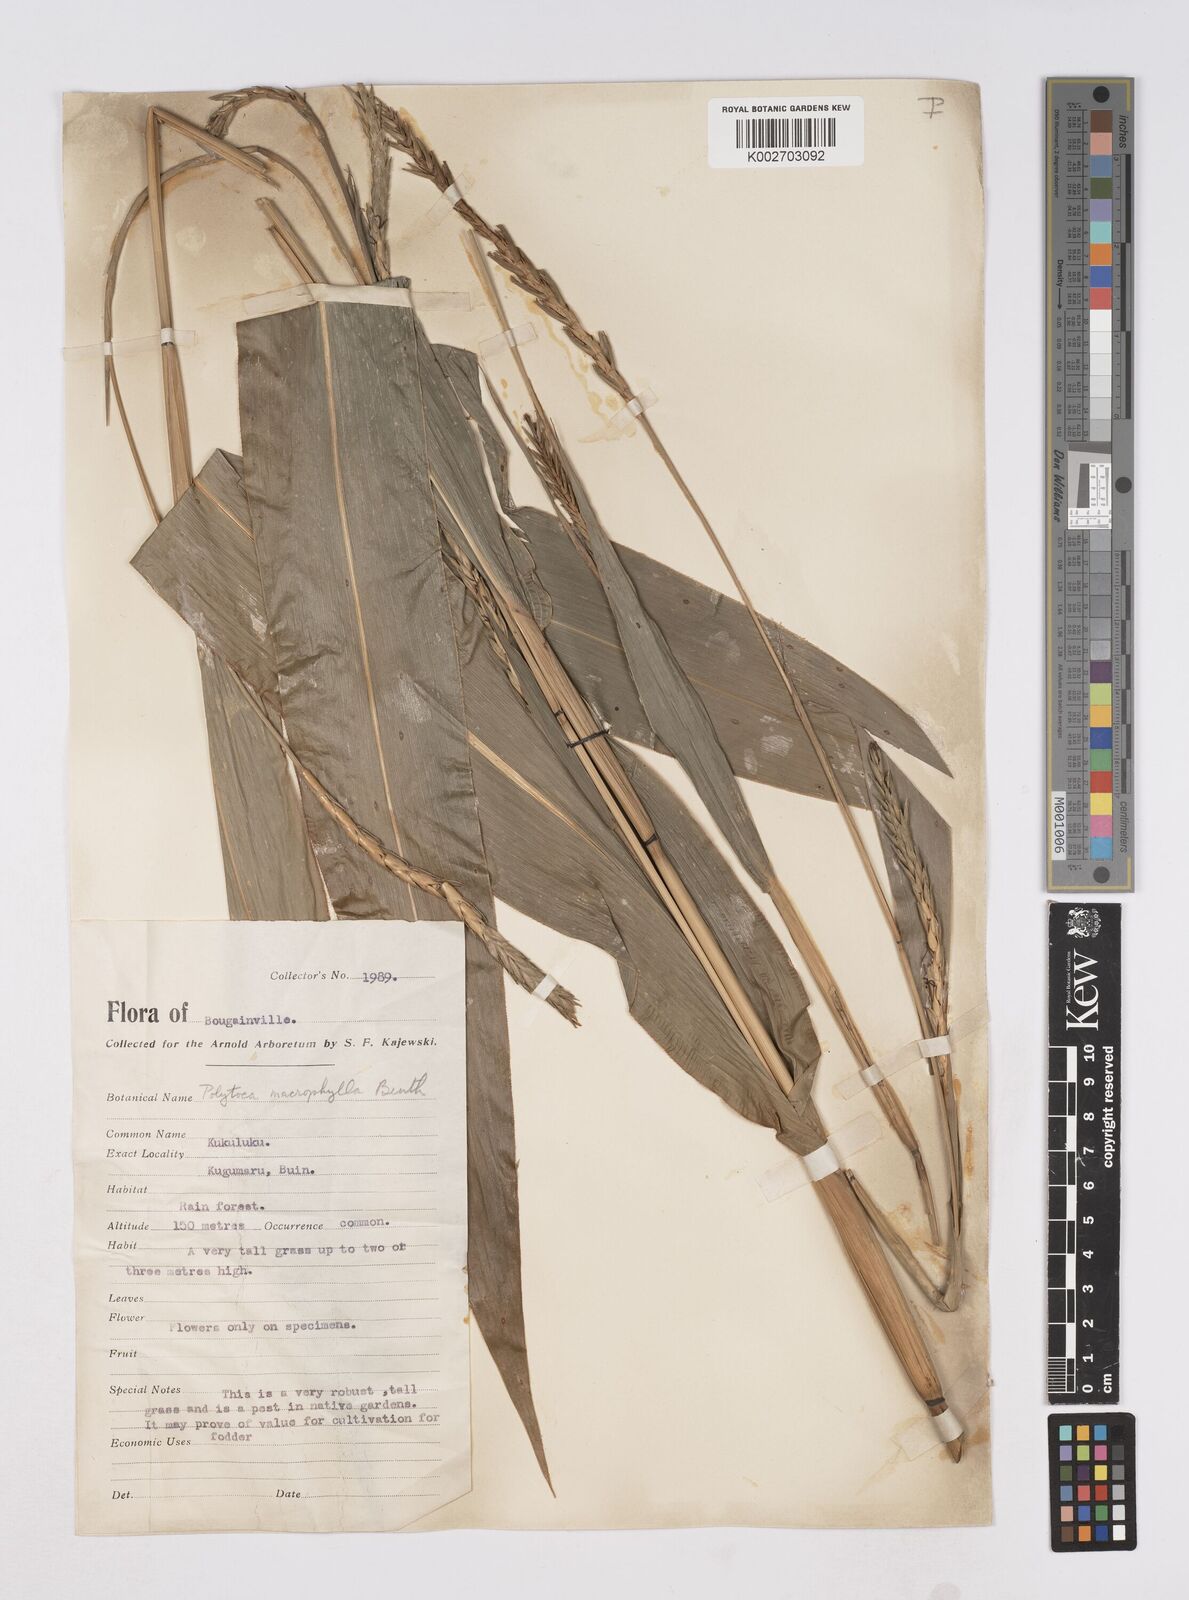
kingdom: Plantae
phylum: Tracheophyta
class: Liliopsida
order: Poales
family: Poaceae
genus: Polytoca
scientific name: Polytoca macrophylla
